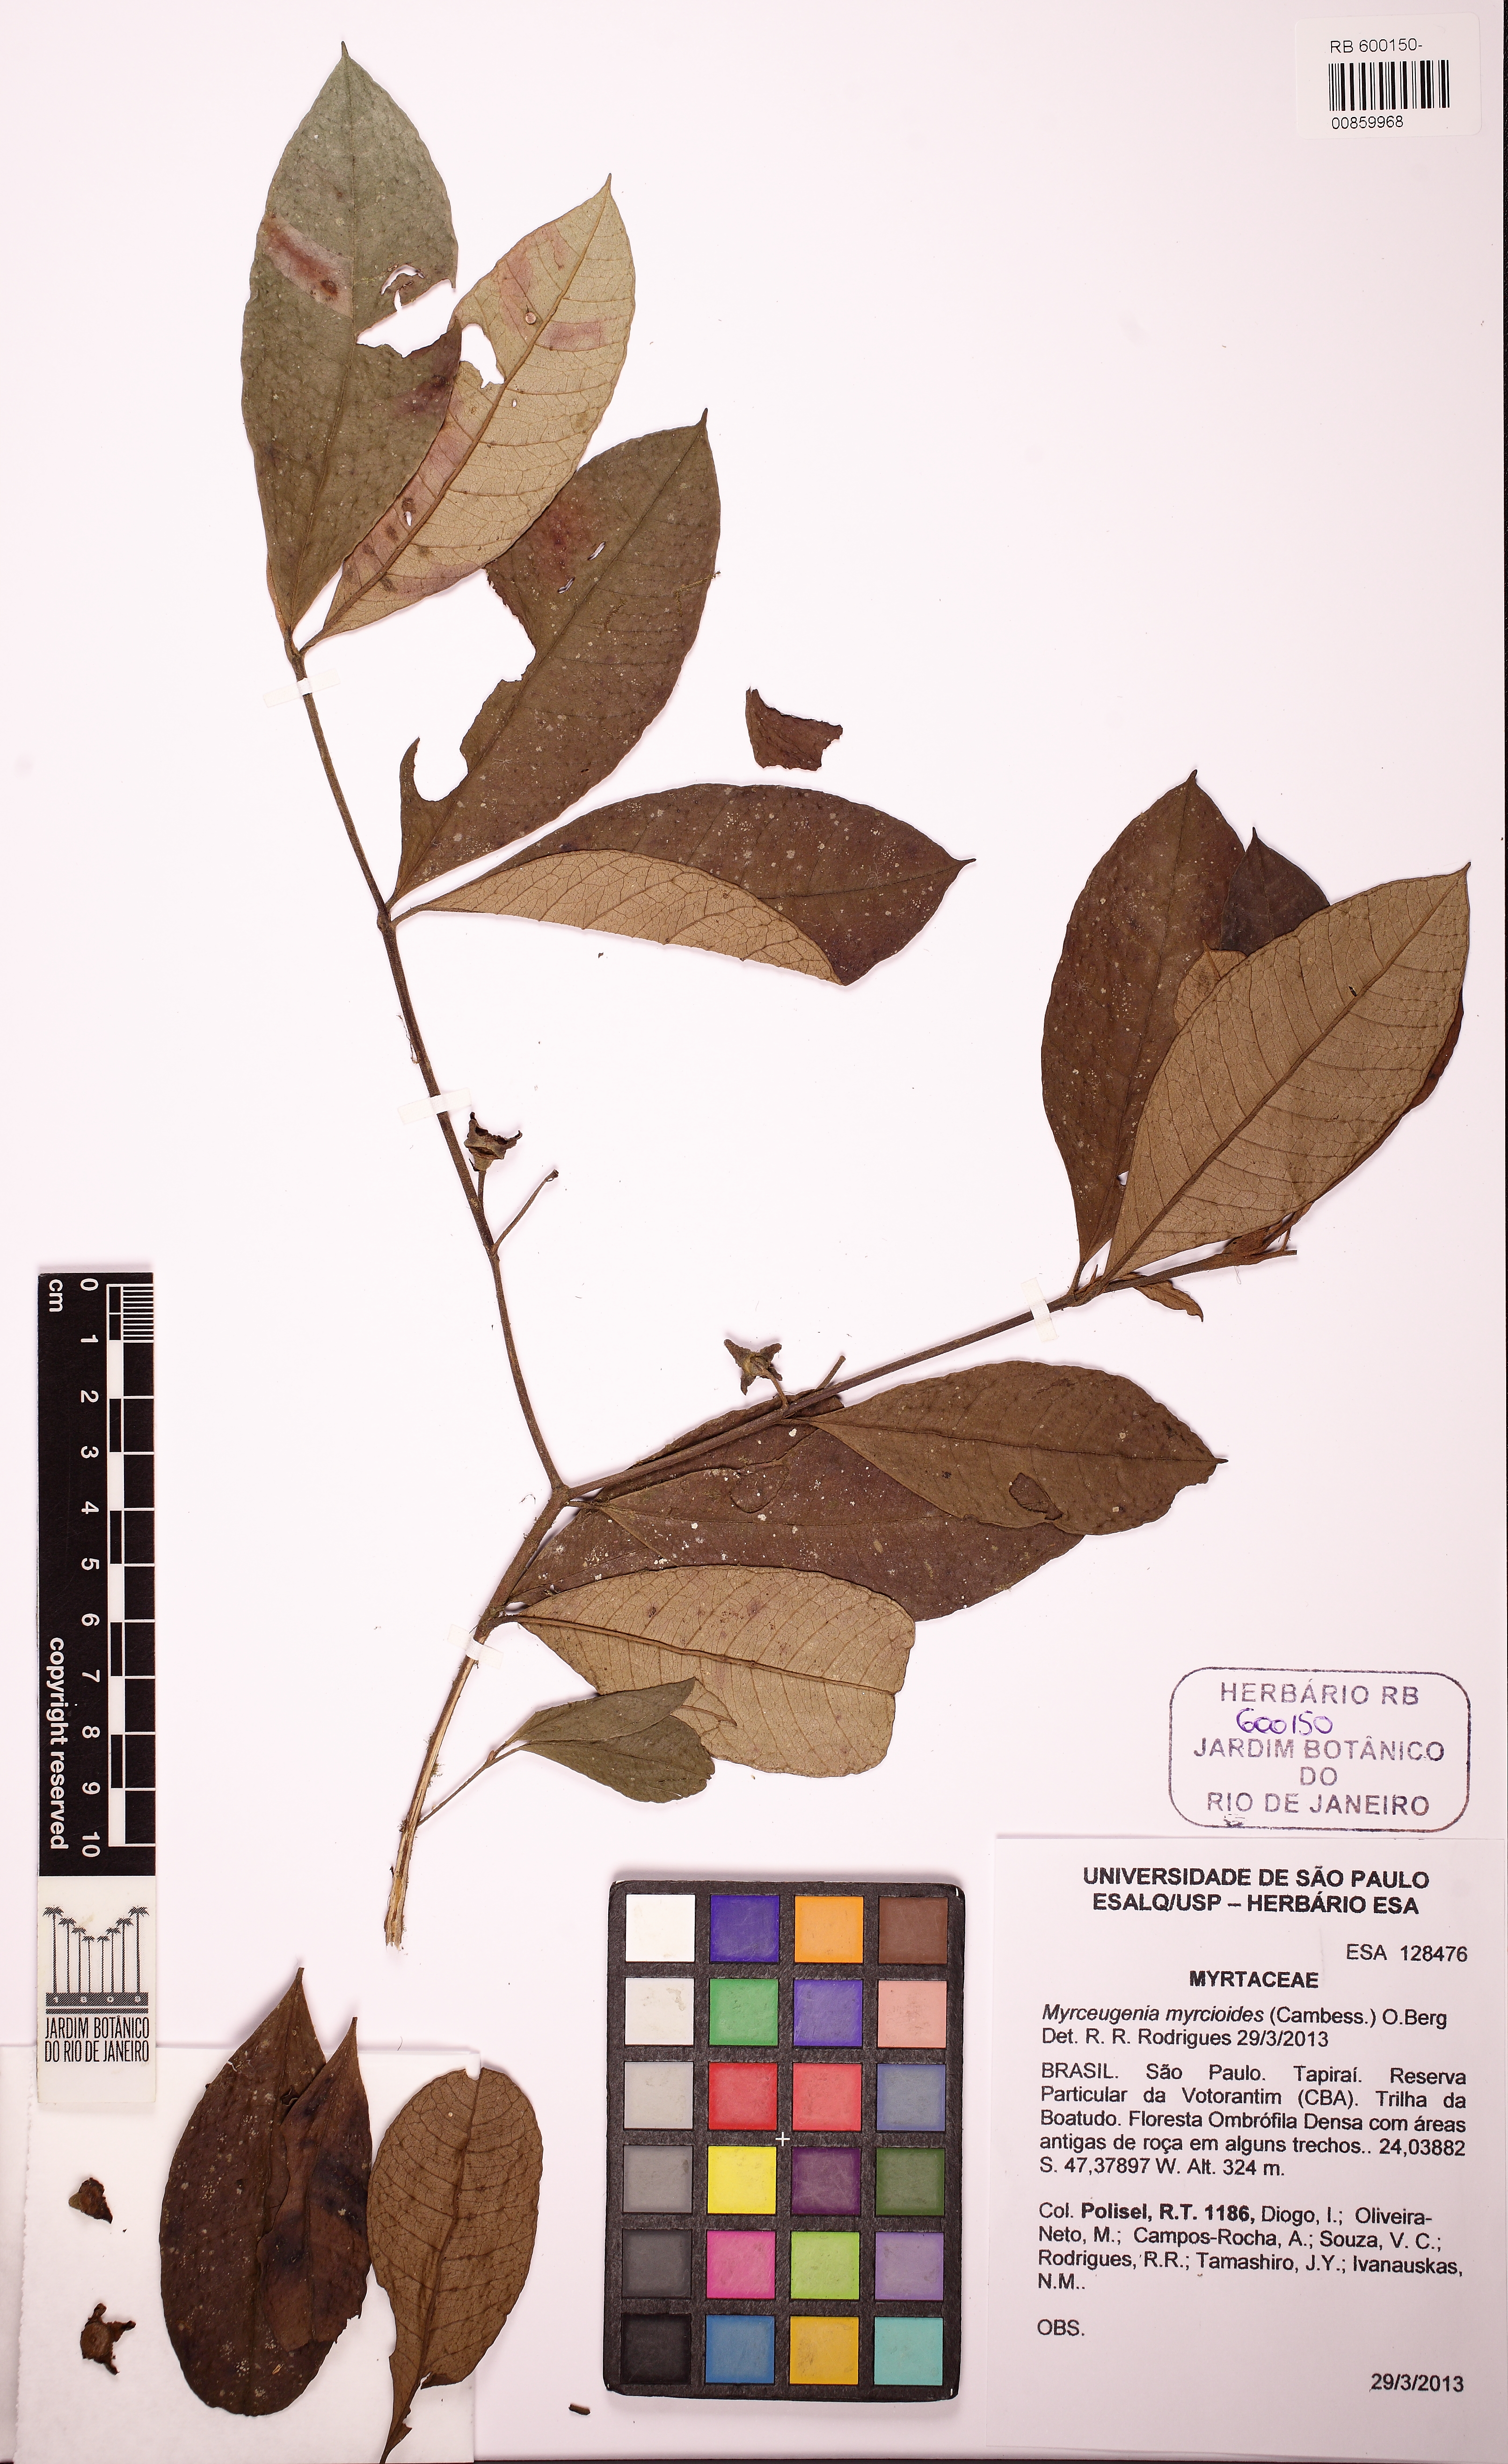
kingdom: Plantae
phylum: Tracheophyta
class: Magnoliopsida
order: Myrtales
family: Myrtaceae
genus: Myrceugenia
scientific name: Myrceugenia myrcioides
